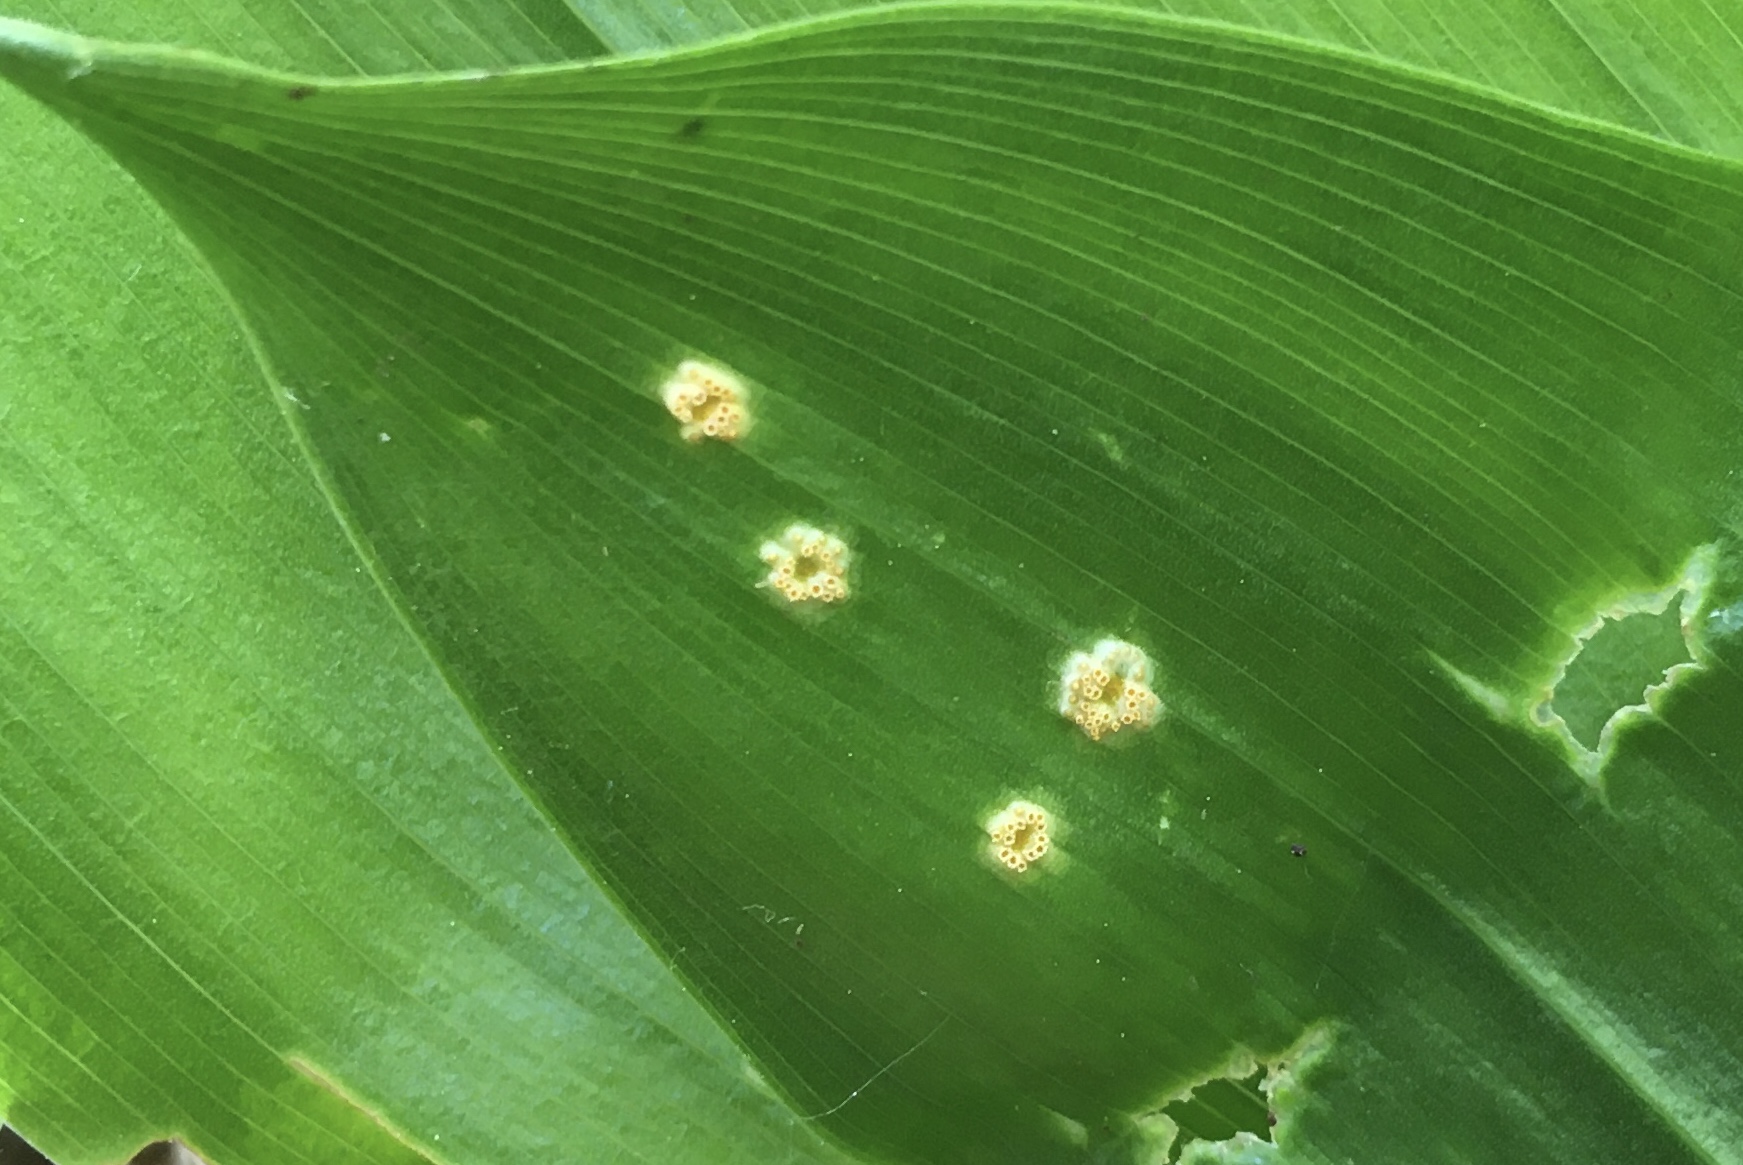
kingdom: Fungi
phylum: Basidiomycota
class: Pucciniomycetes
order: Pucciniales
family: Pucciniaceae
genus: Puccinia
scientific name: Puccinia sessilis
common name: Arum rust
